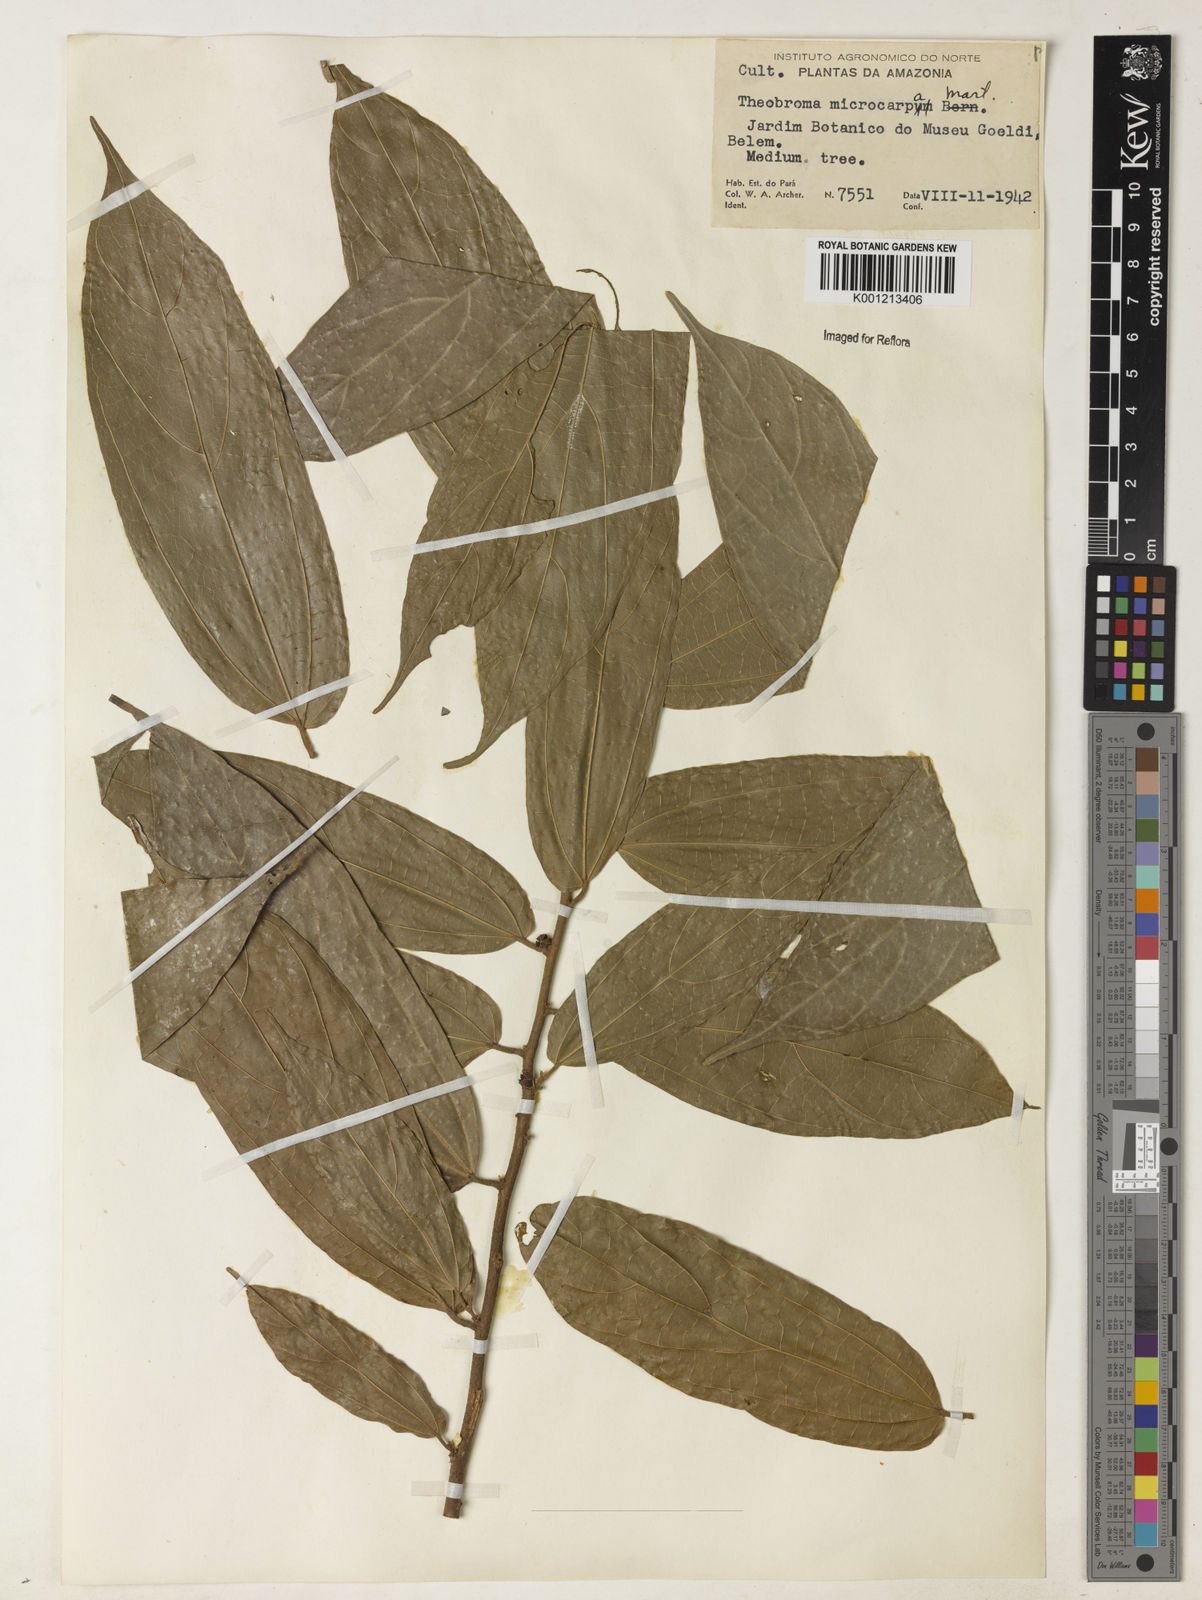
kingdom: Plantae
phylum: Tracheophyta
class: Magnoliopsida
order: Malvales
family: Malvaceae
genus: Theobroma
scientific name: Theobroma microcarpum
